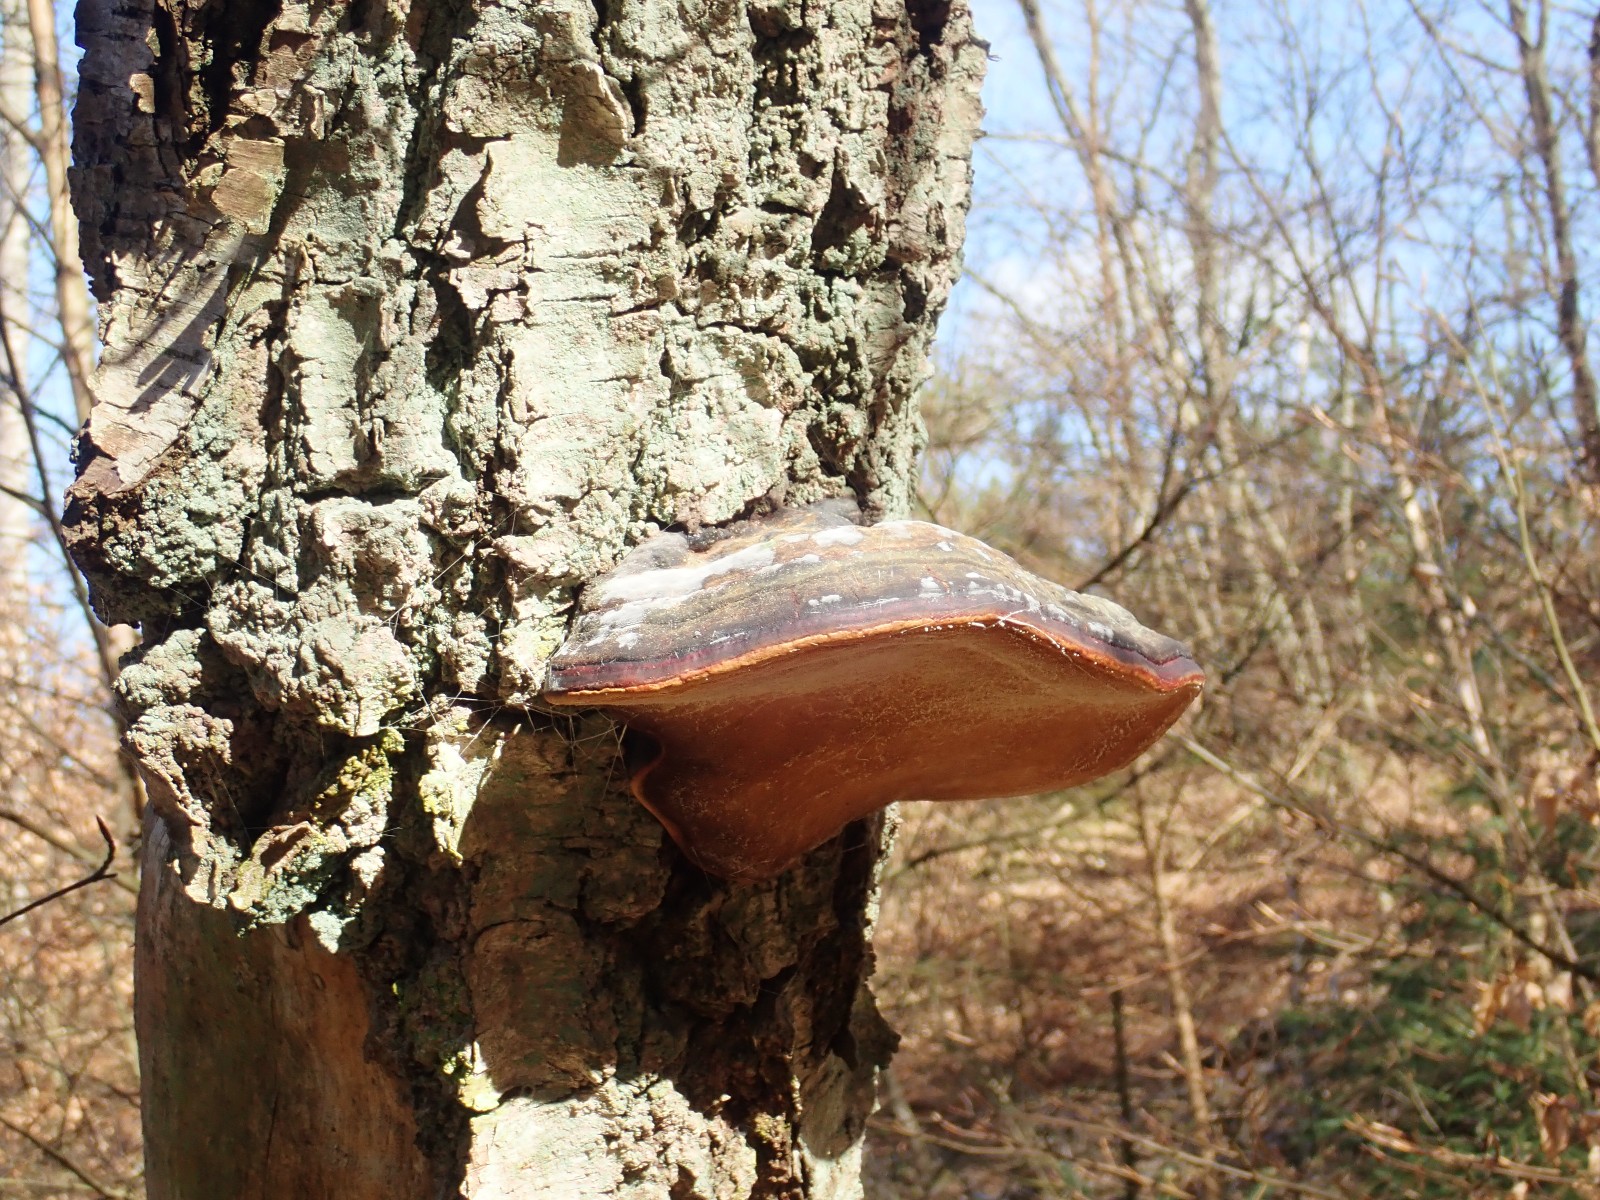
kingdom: Fungi
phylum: Basidiomycota
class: Agaricomycetes
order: Polyporales
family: Fomitopsidaceae
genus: Fomitopsis
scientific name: Fomitopsis pinicola
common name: randbæltet hovporesvamp
